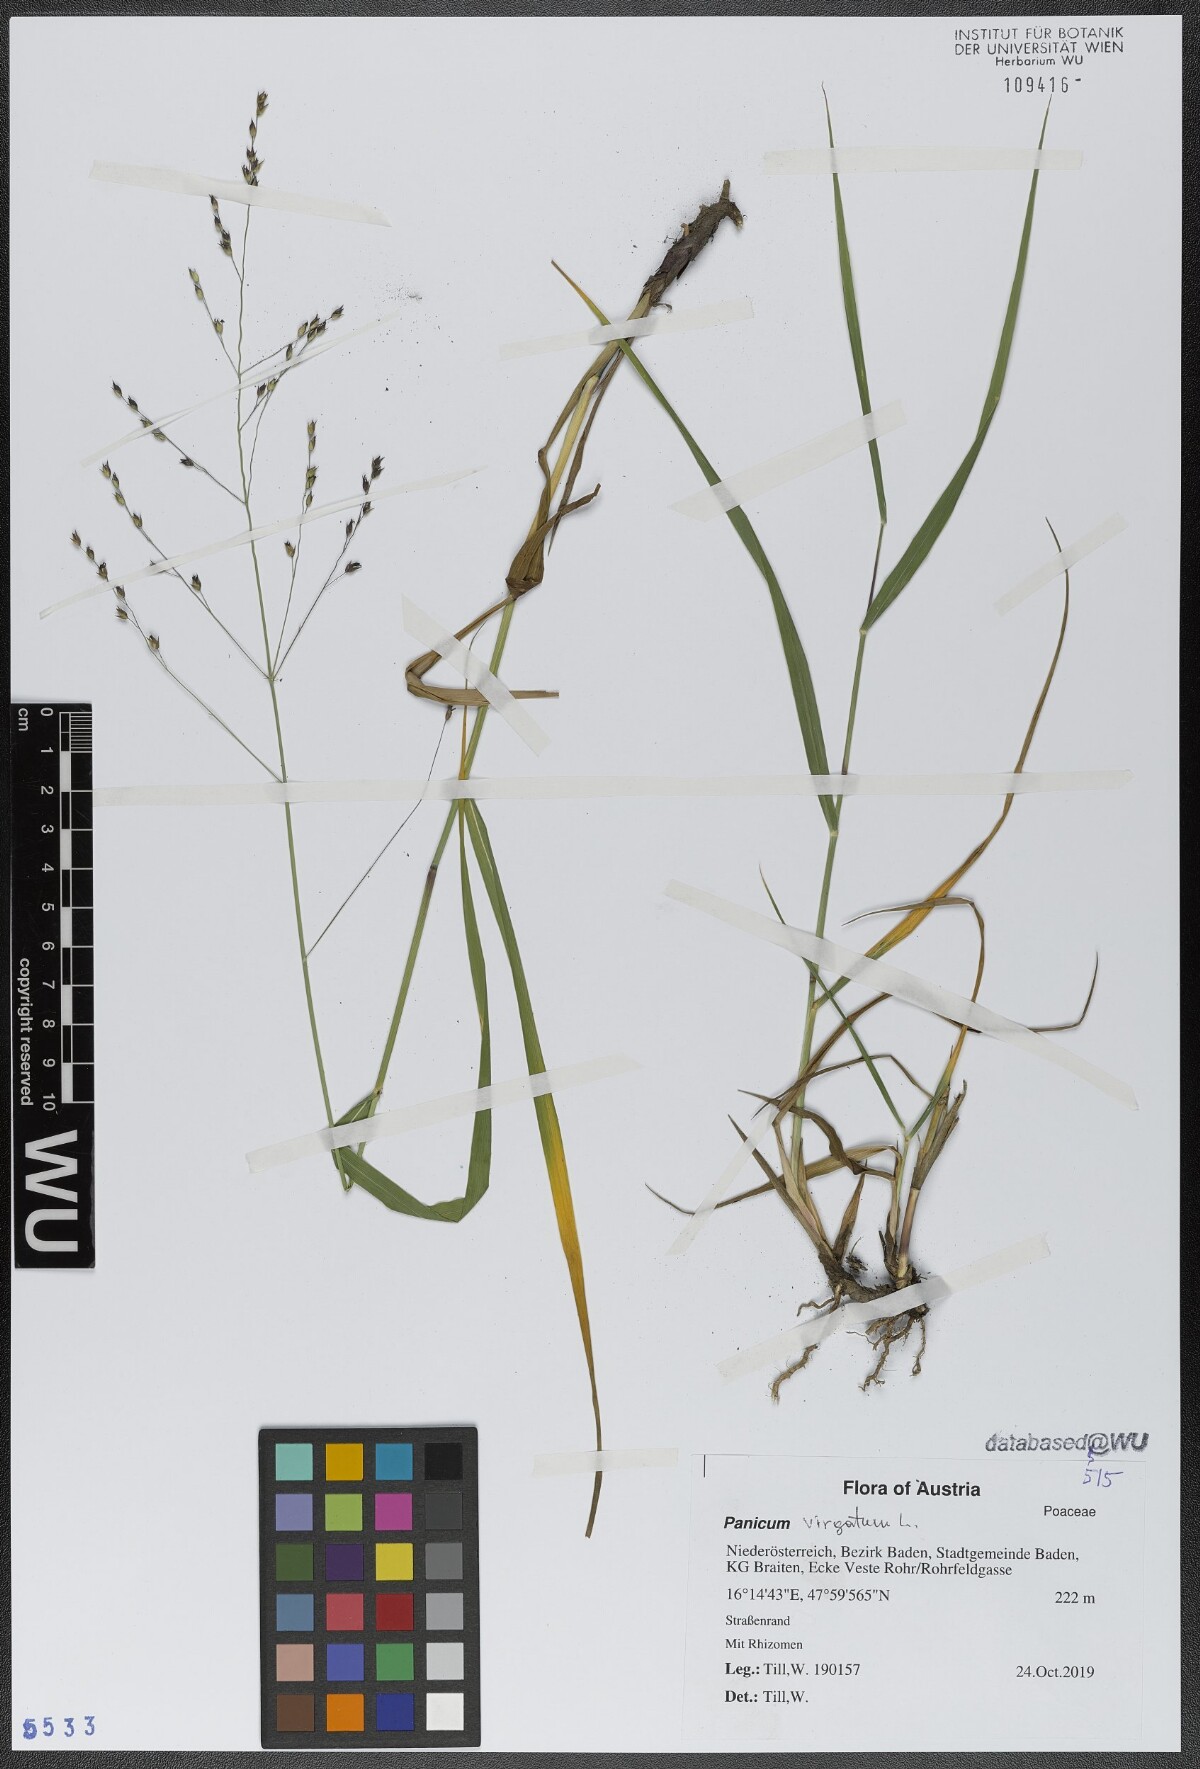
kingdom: Plantae
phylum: Tracheophyta
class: Liliopsida
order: Poales
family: Poaceae
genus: Panicum
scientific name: Panicum virgatum
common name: Switchgrass
